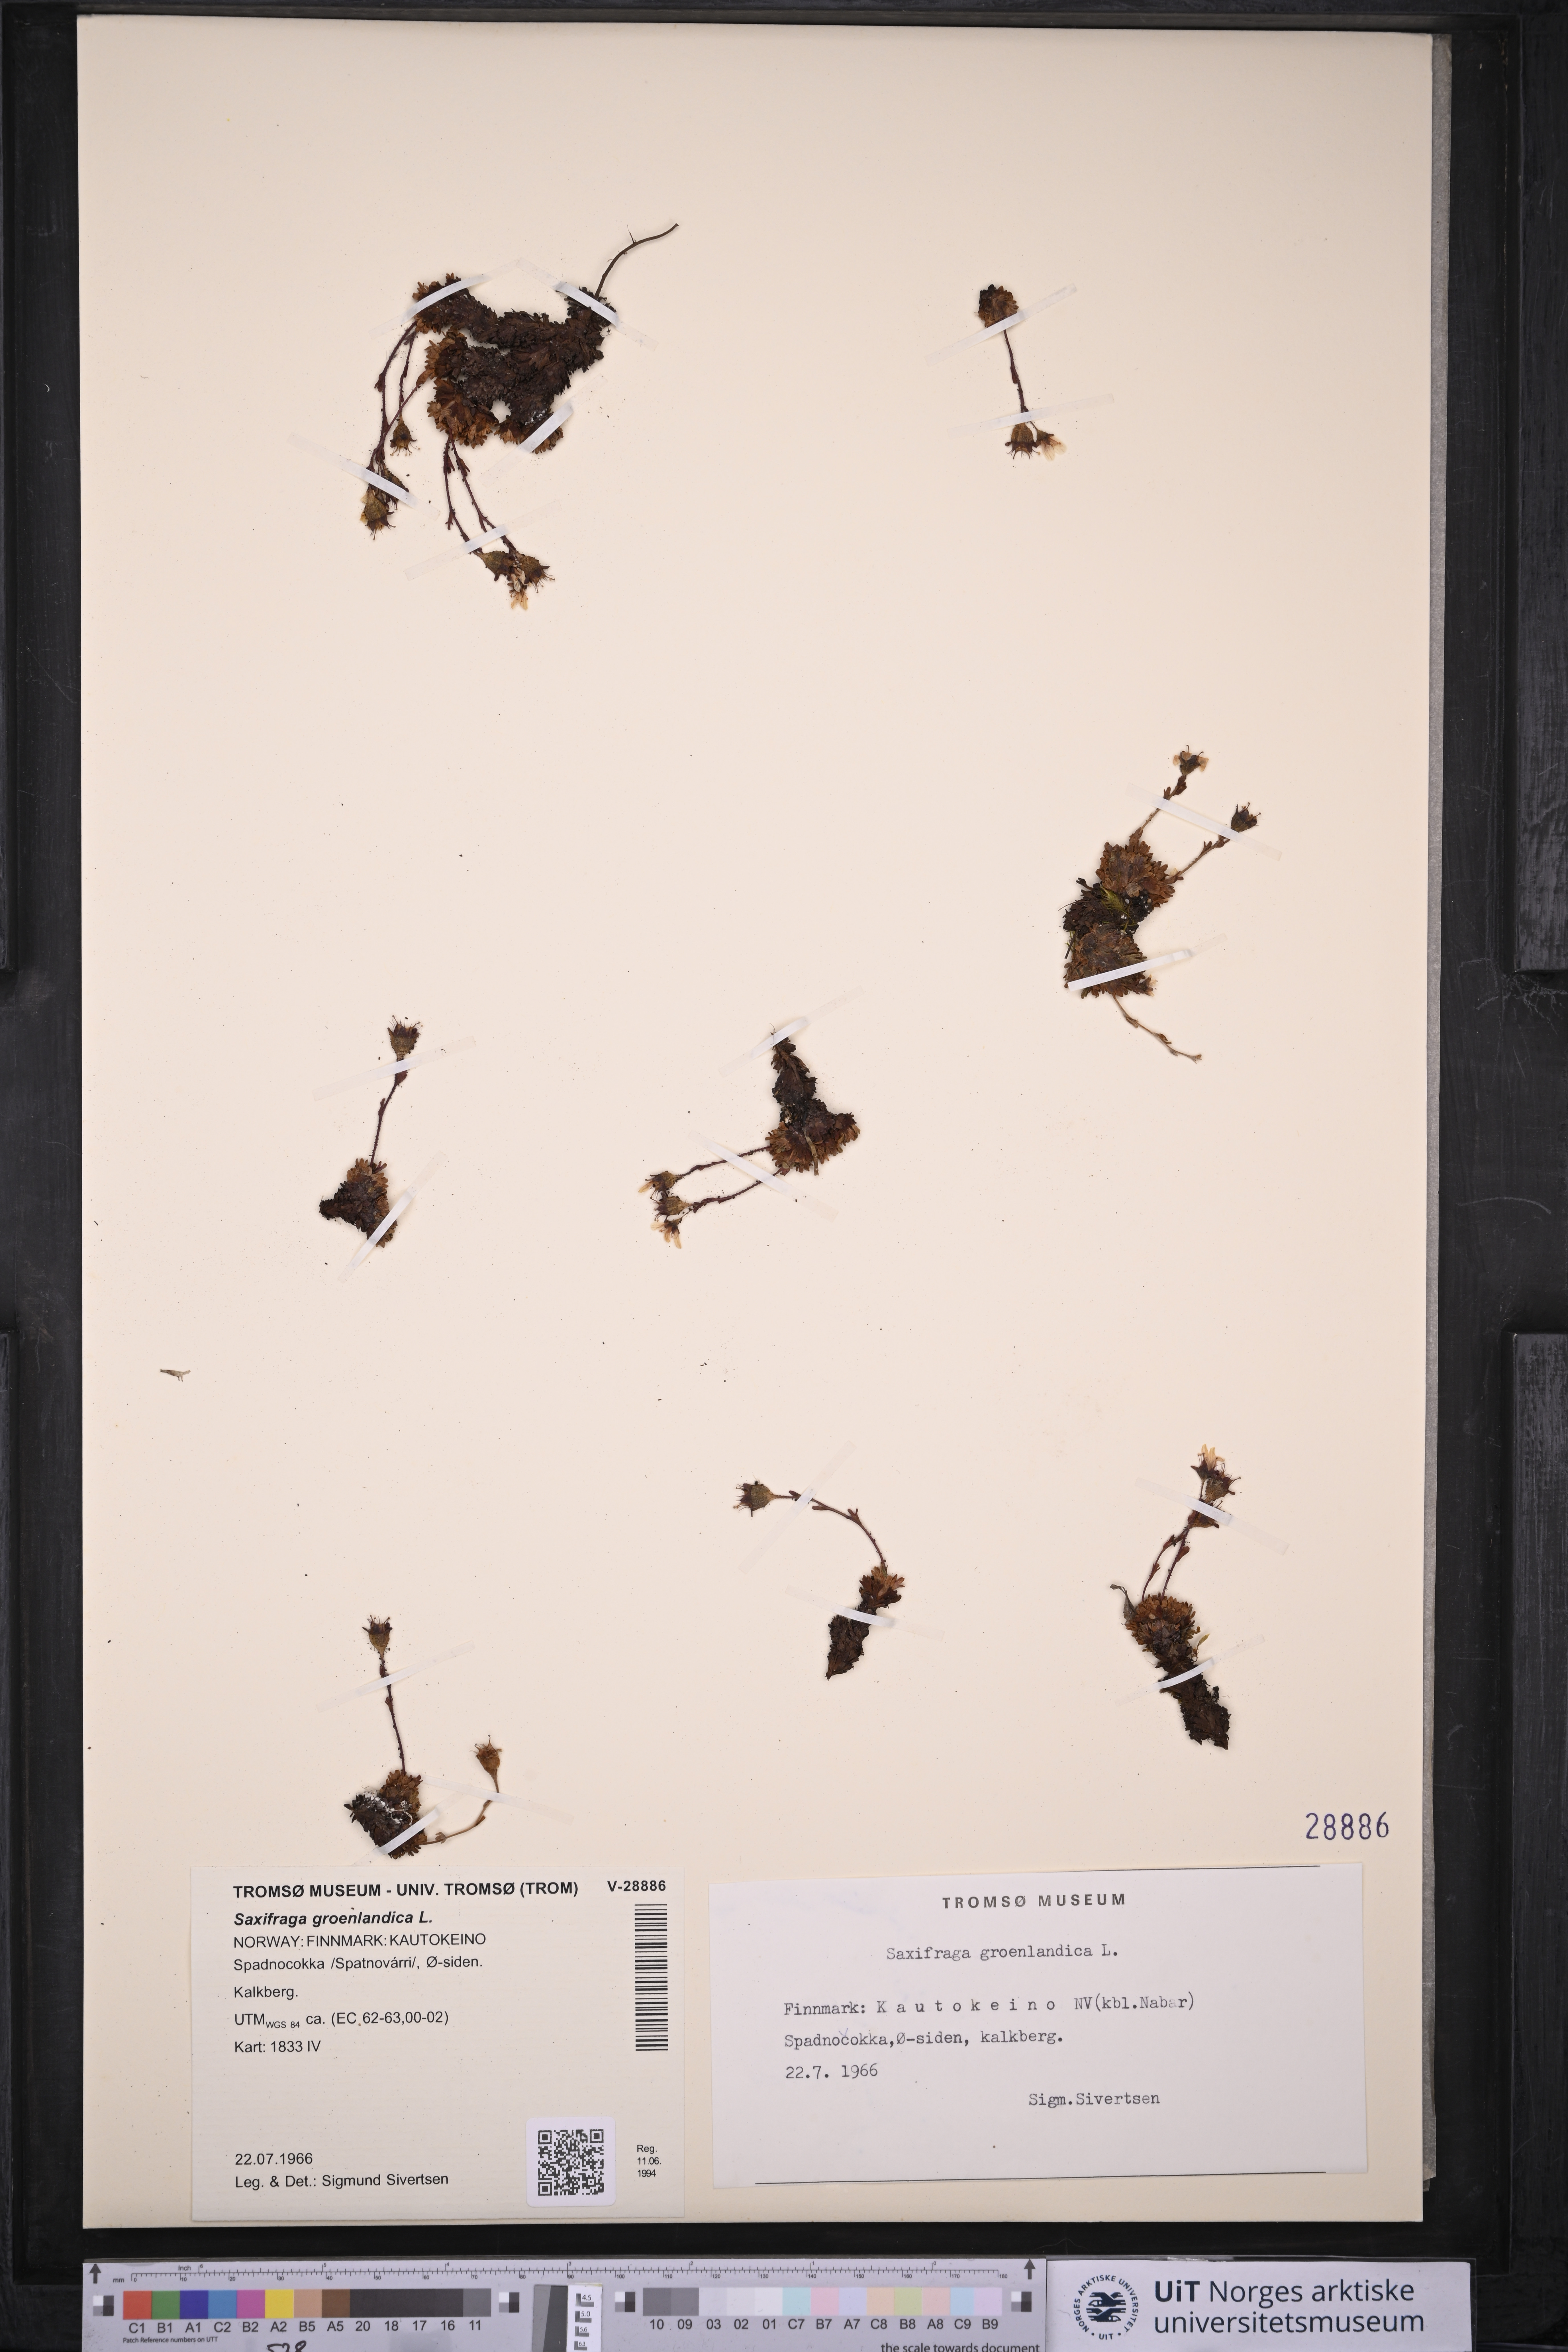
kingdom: Plantae
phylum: Tracheophyta
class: Magnoliopsida
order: Saxifragales
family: Saxifragaceae
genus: Saxifraga
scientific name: Saxifraga cespitosa
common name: Tufted saxifrage
